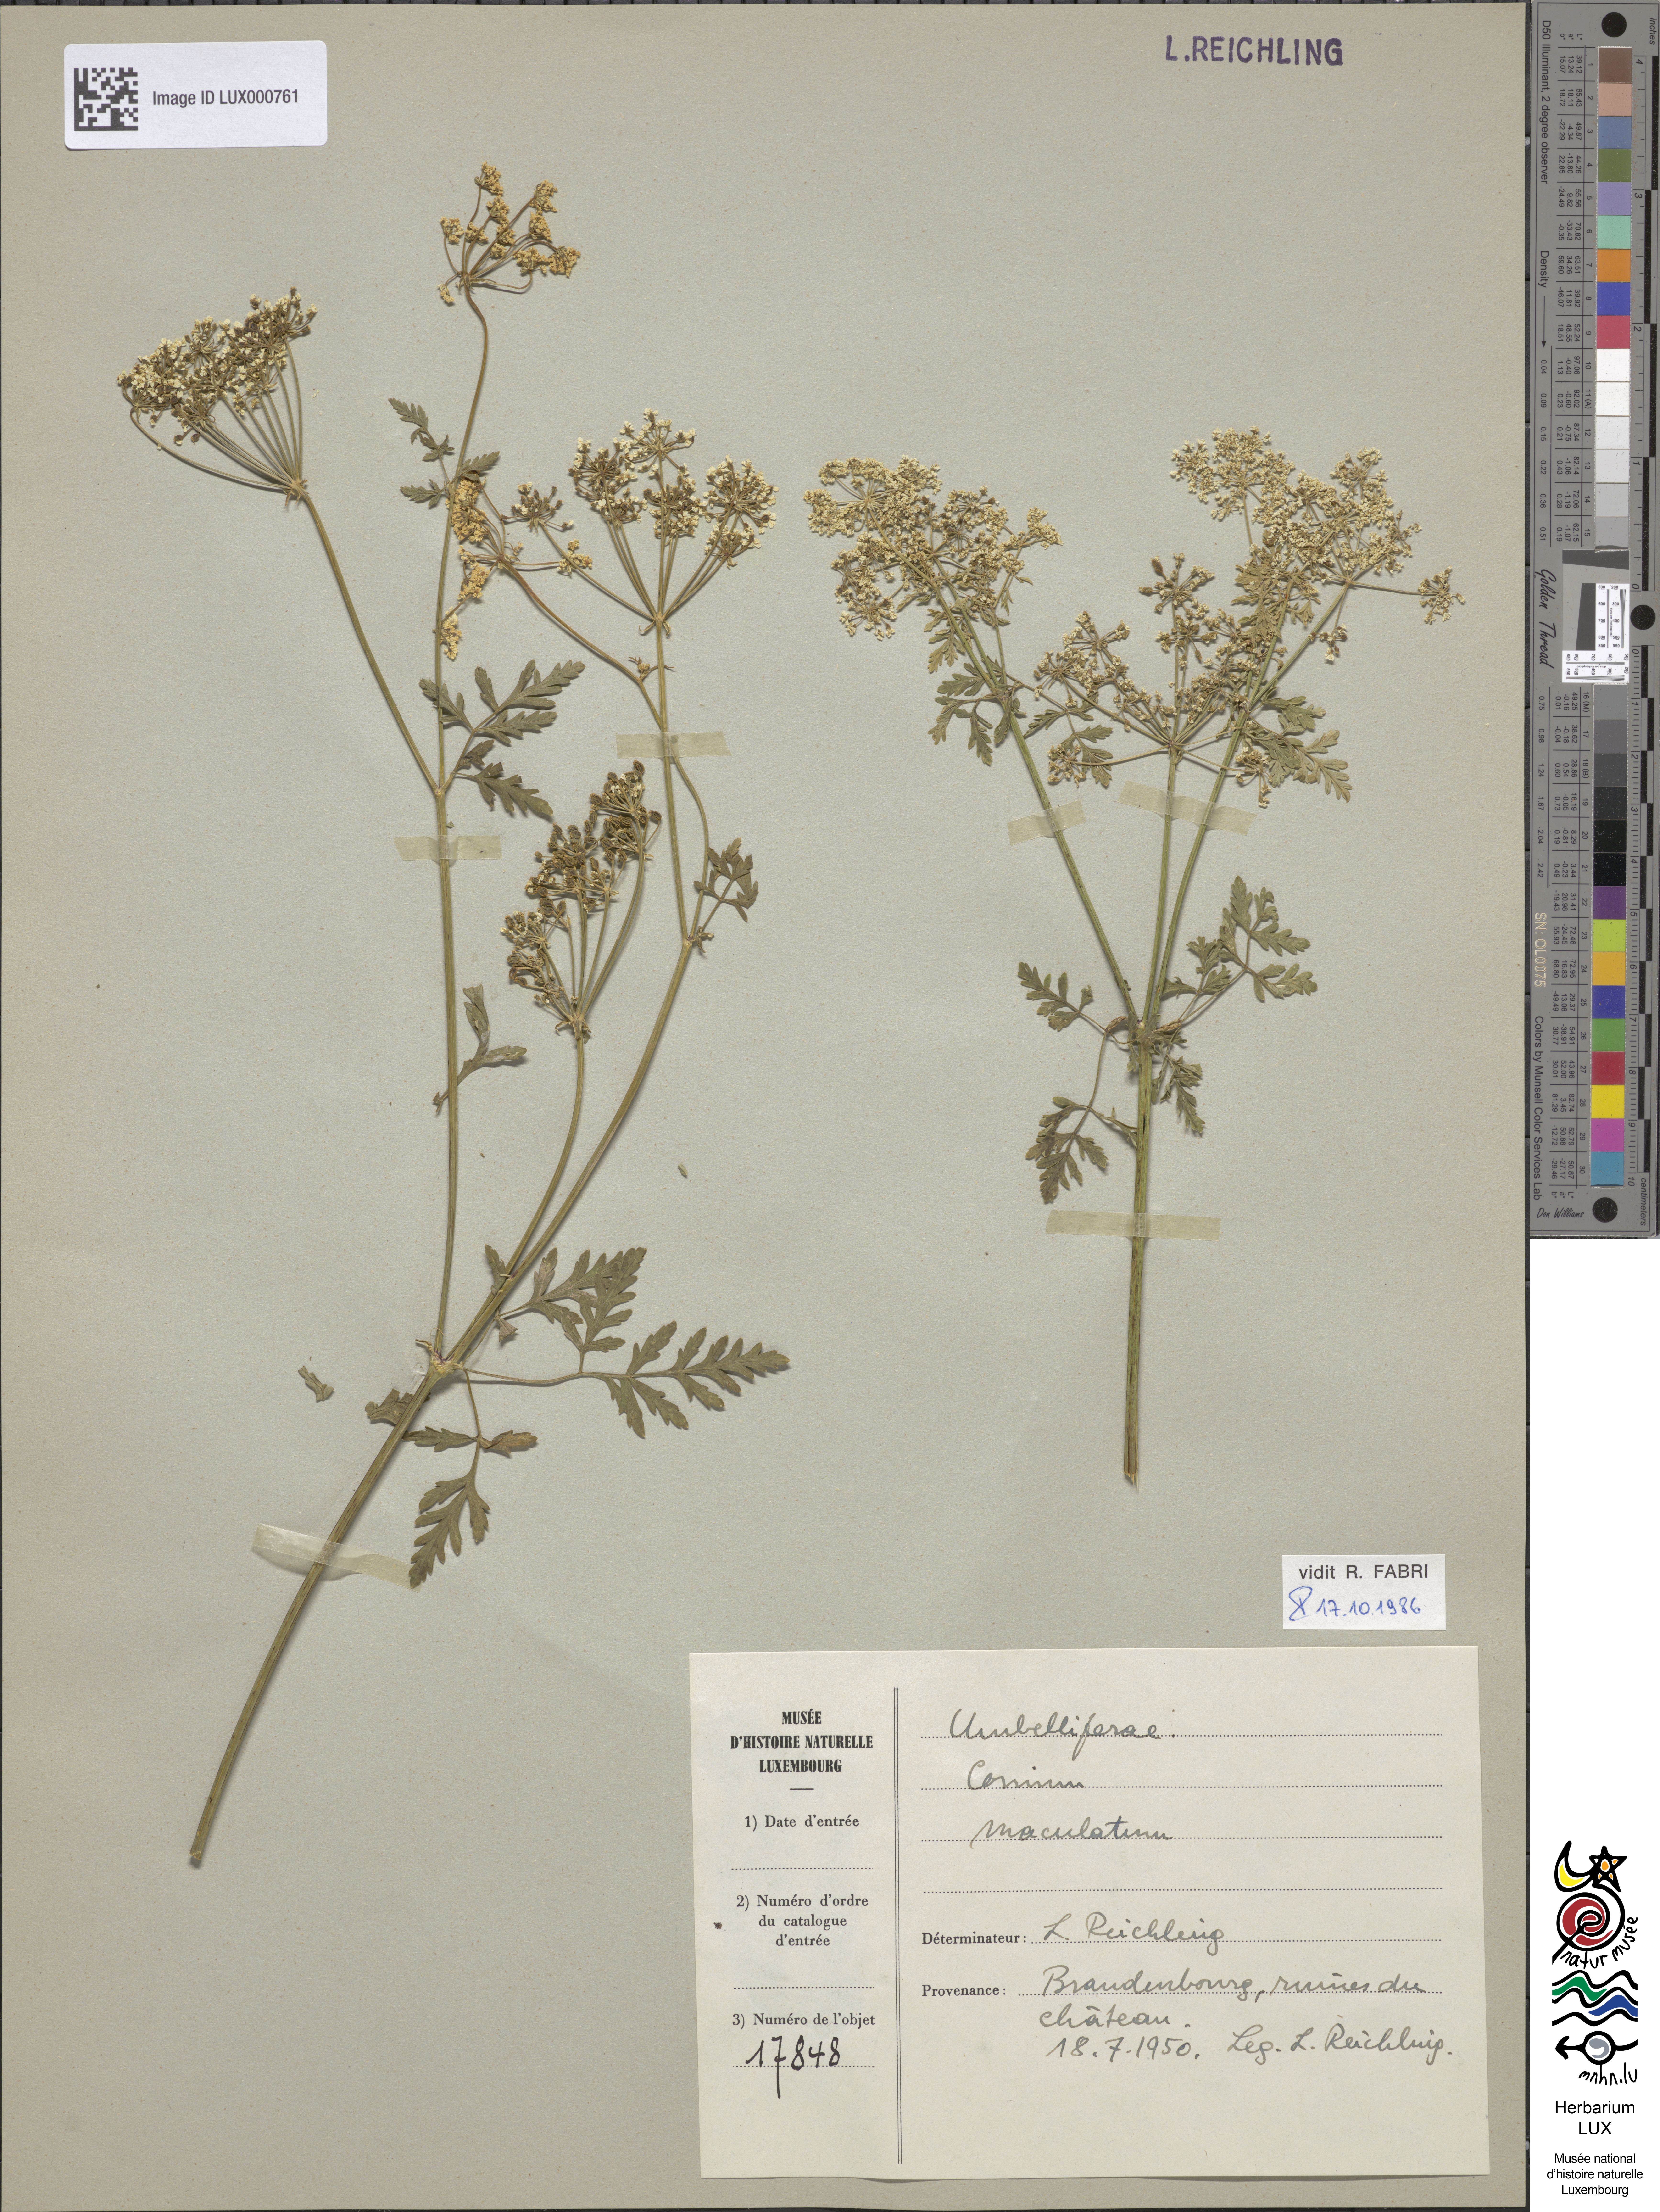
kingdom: Plantae
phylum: Tracheophyta
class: Magnoliopsida
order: Apiales
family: Apiaceae
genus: Conium
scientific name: Conium maculatum
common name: Hemlock
